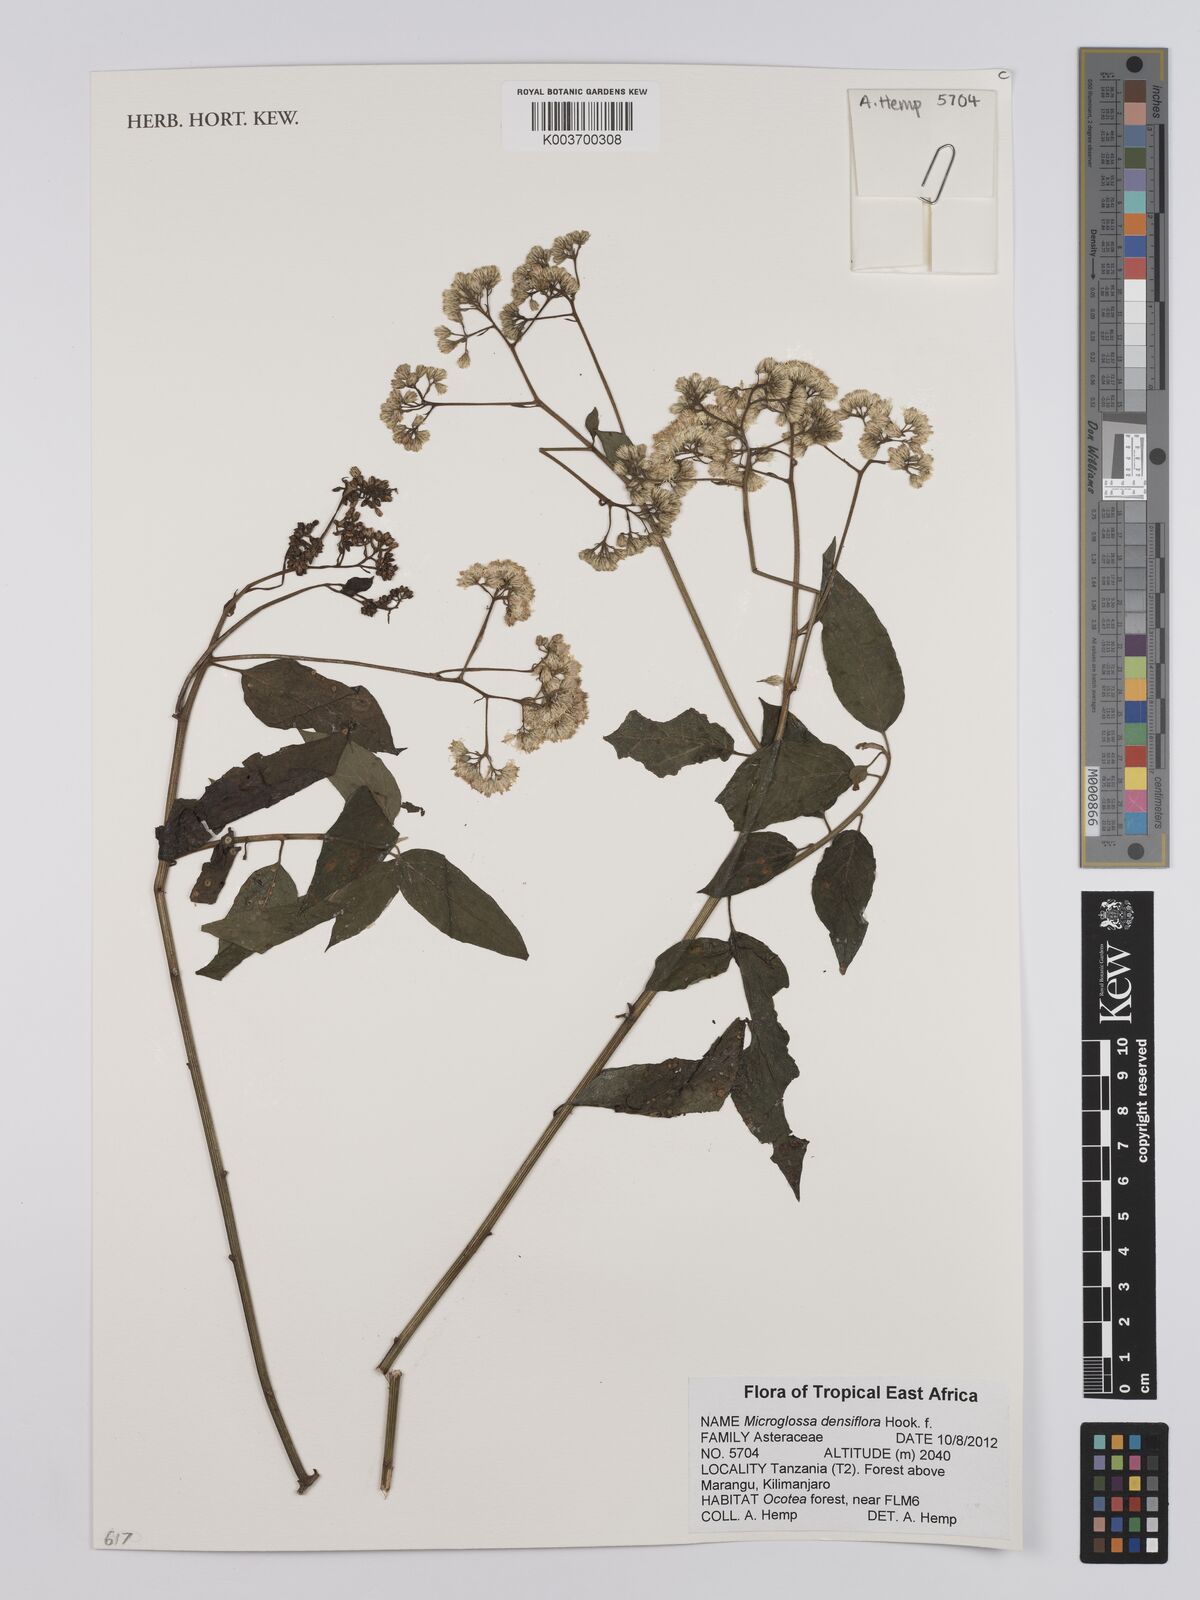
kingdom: Plantae
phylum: Tracheophyta
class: Magnoliopsida
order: Asterales
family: Asteraceae
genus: Microglossa
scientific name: Microglossa densiflora
